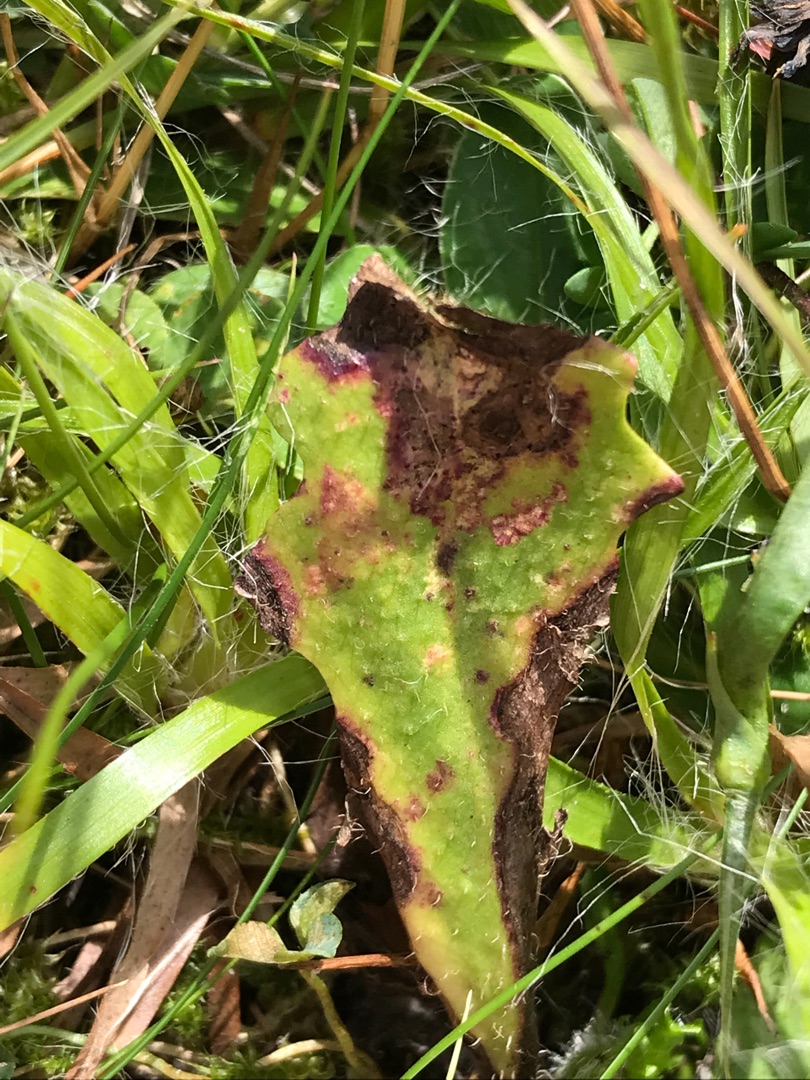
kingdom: Animalia
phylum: Arthropoda
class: Insecta
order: Hymenoptera
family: Cynipidae
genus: Phanacis
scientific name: Phanacis hypochoeridis
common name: Kongepengalhveps
